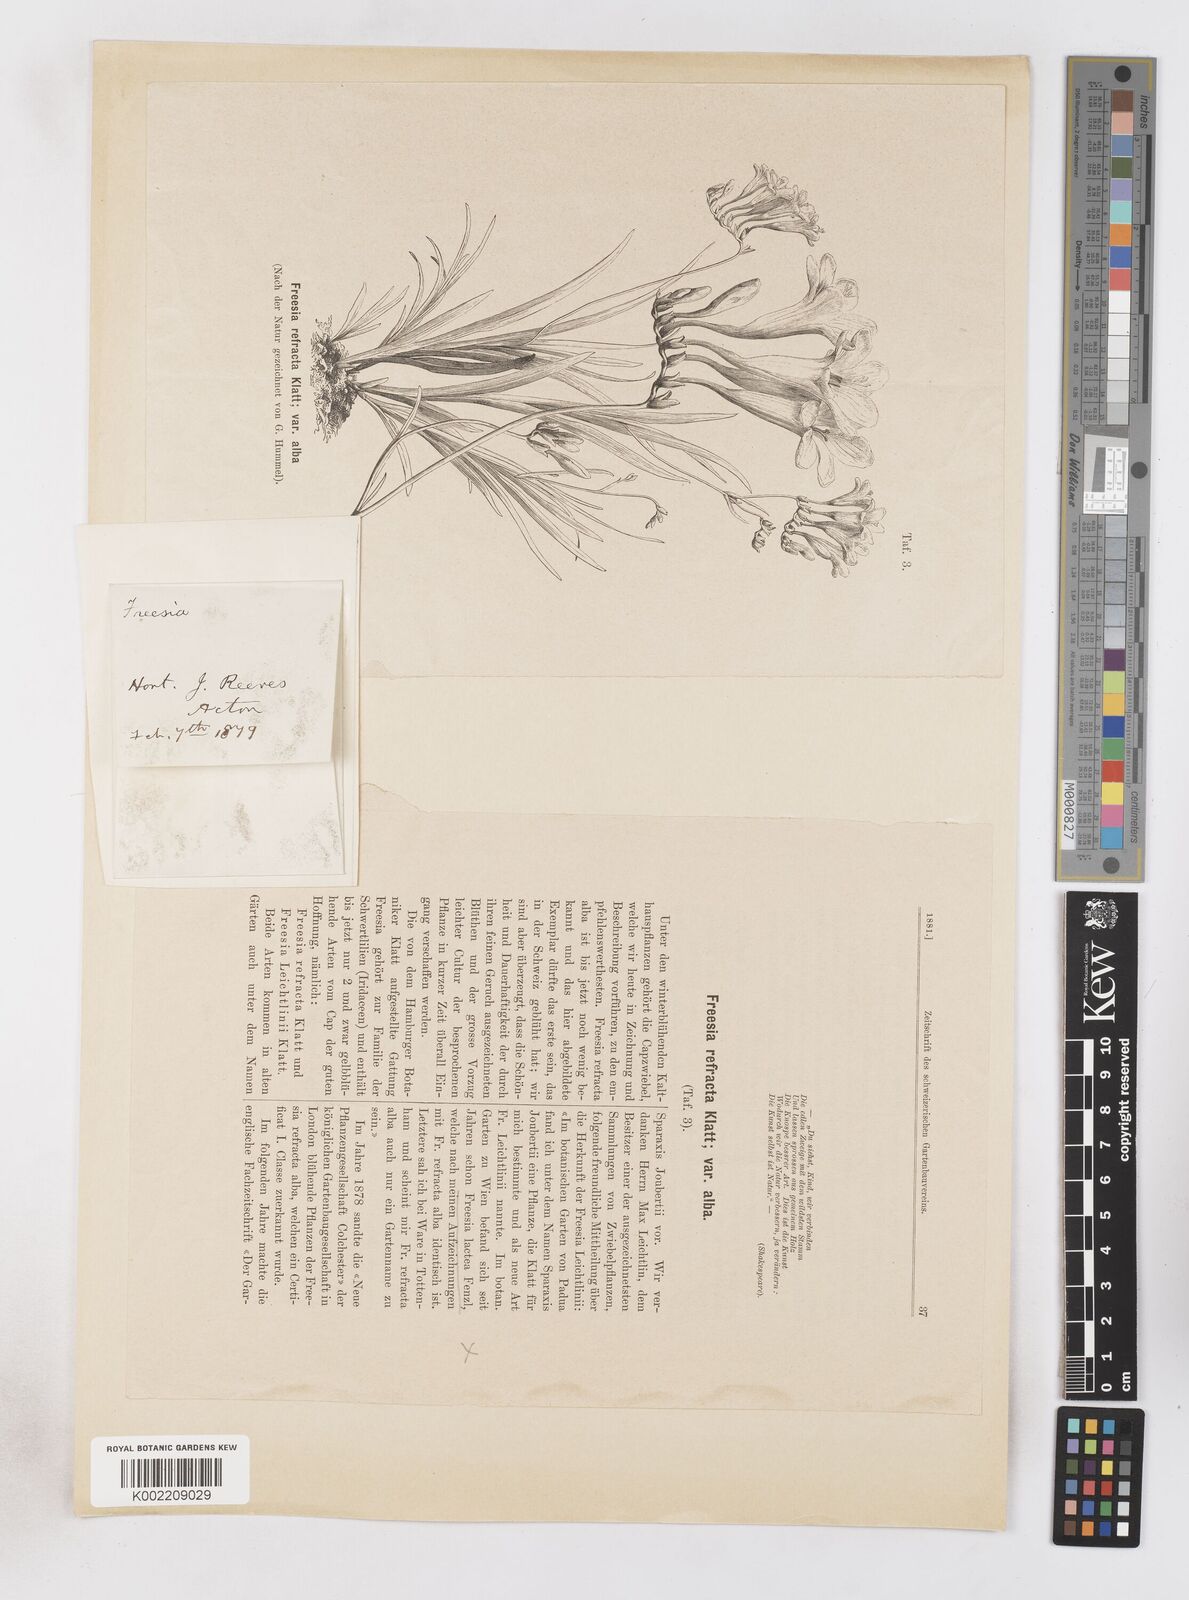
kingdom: Plantae
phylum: Tracheophyta
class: Liliopsida
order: Asparagales
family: Iridaceae
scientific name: Iridaceae
